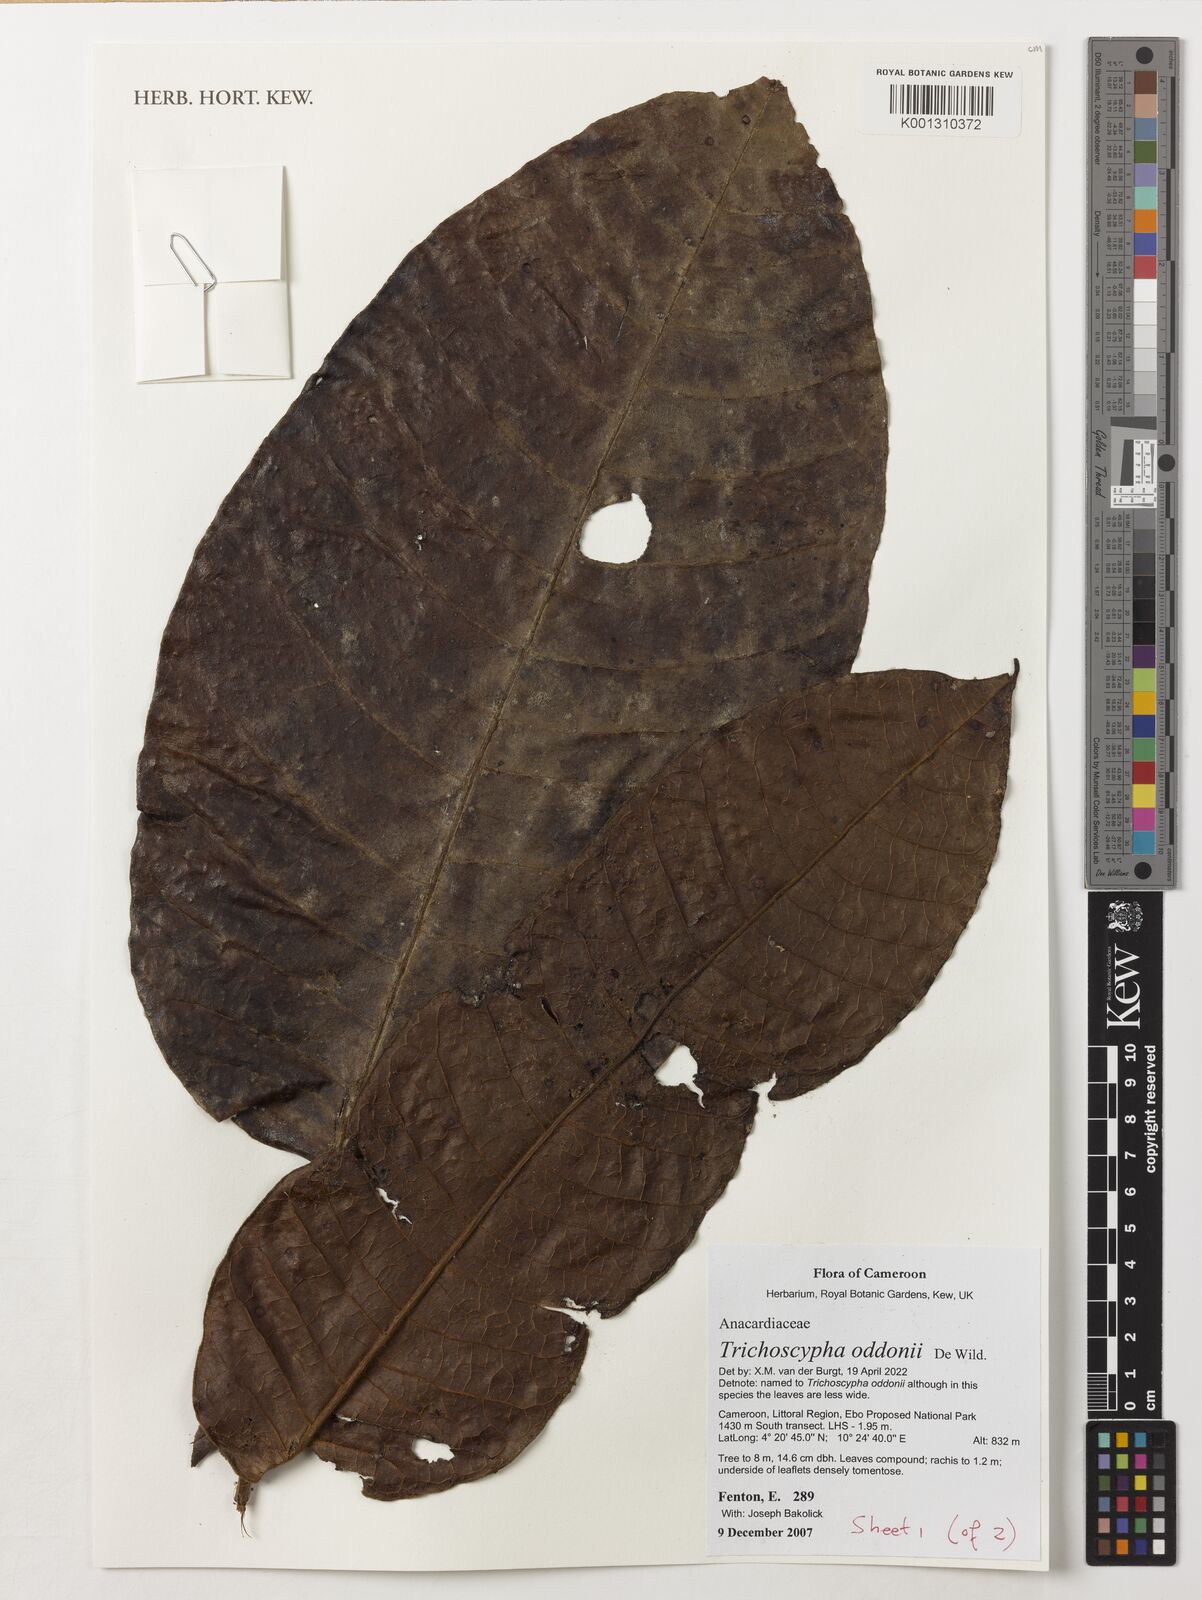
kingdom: Plantae
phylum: Tracheophyta
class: Magnoliopsida
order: Sapindales
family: Anacardiaceae
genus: Trichoscypha
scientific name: Trichoscypha oddonii
